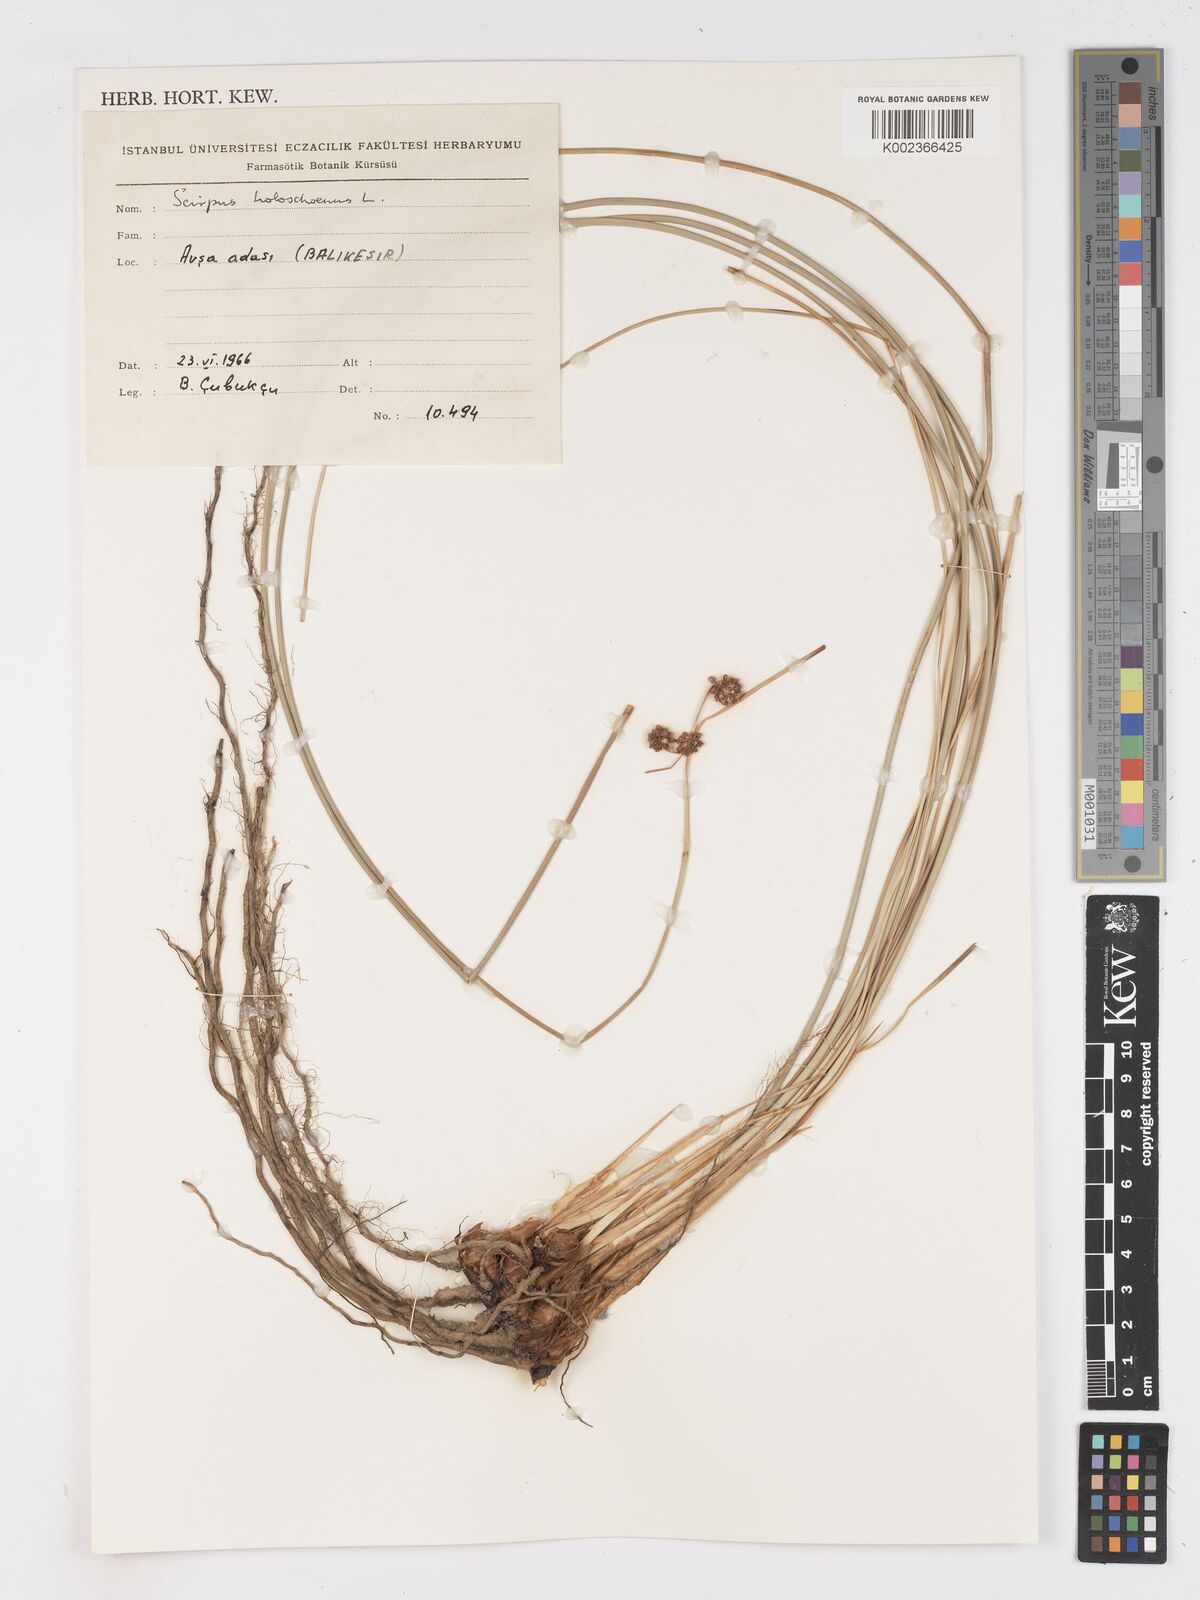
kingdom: Plantae
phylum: Tracheophyta
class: Liliopsida
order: Poales
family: Cyperaceae
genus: Scirpoides
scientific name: Scirpoides holoschoenus
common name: Round-headed club-rush
